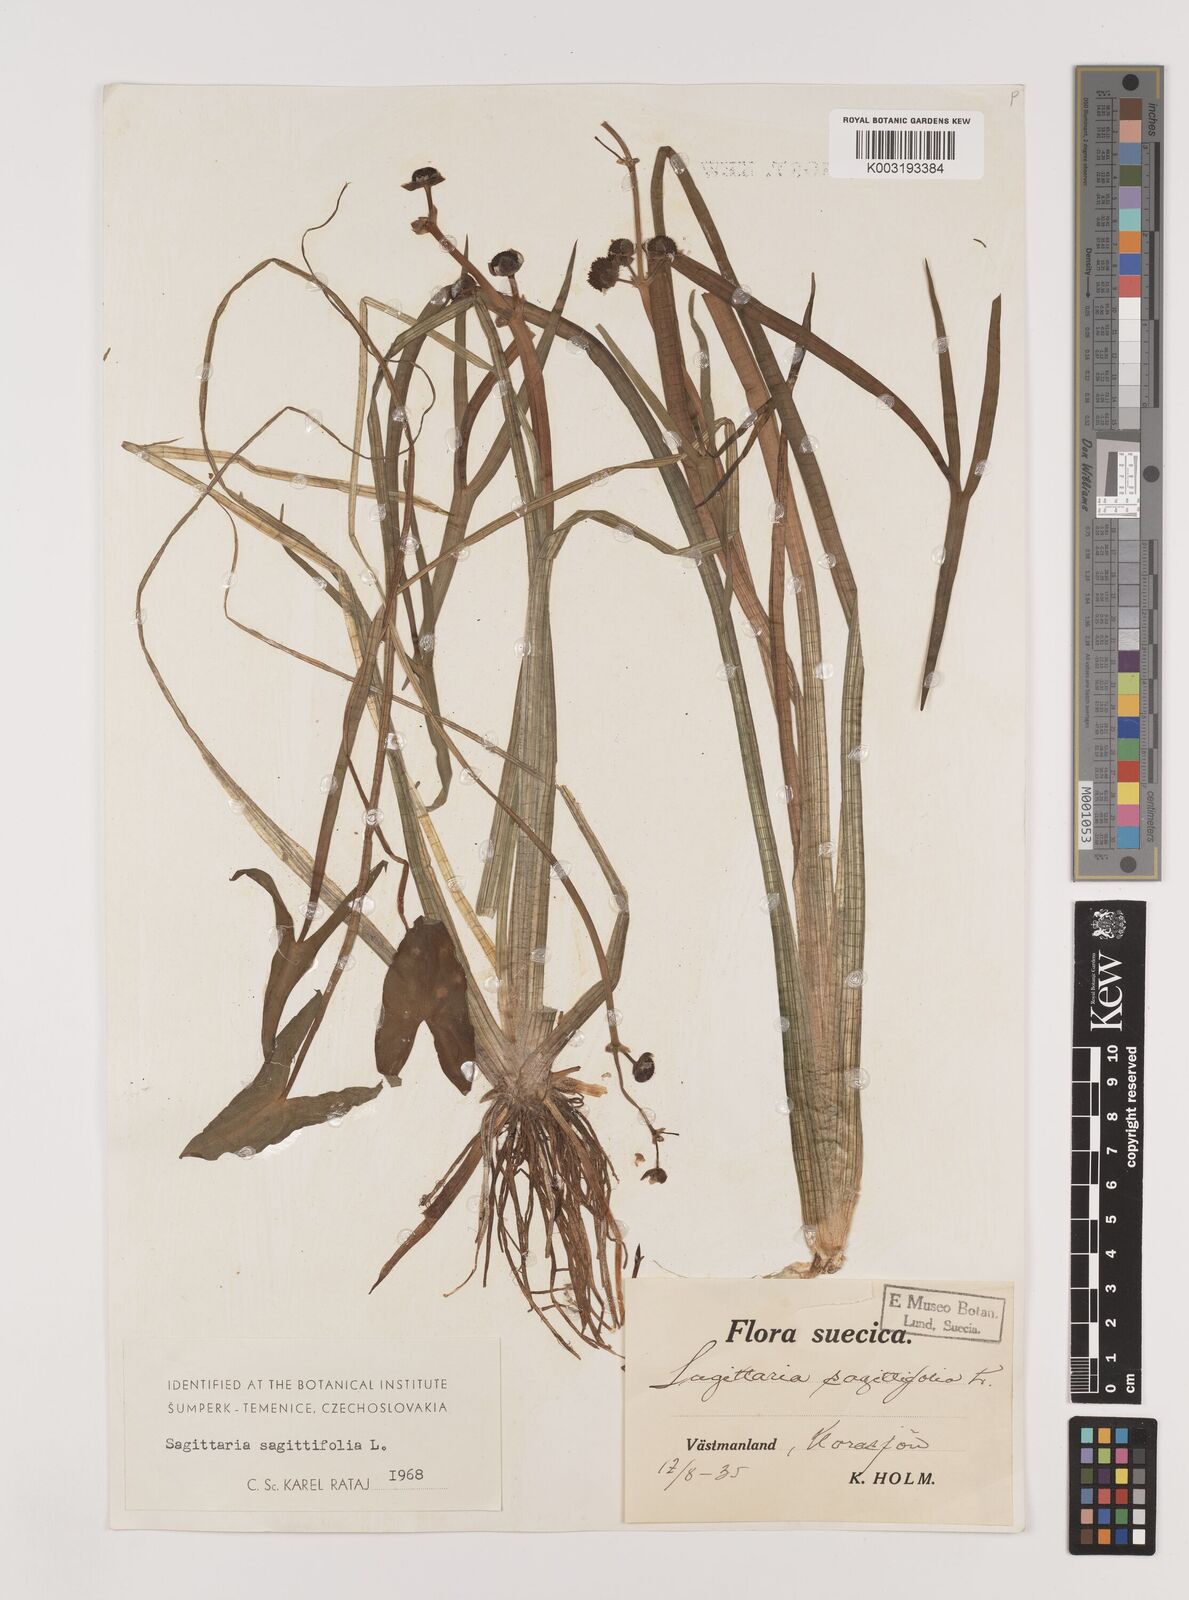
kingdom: Plantae
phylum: Tracheophyta
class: Liliopsida
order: Alismatales
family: Alismataceae
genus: Sagittaria
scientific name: Sagittaria sagittifolia
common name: Arrowhead
